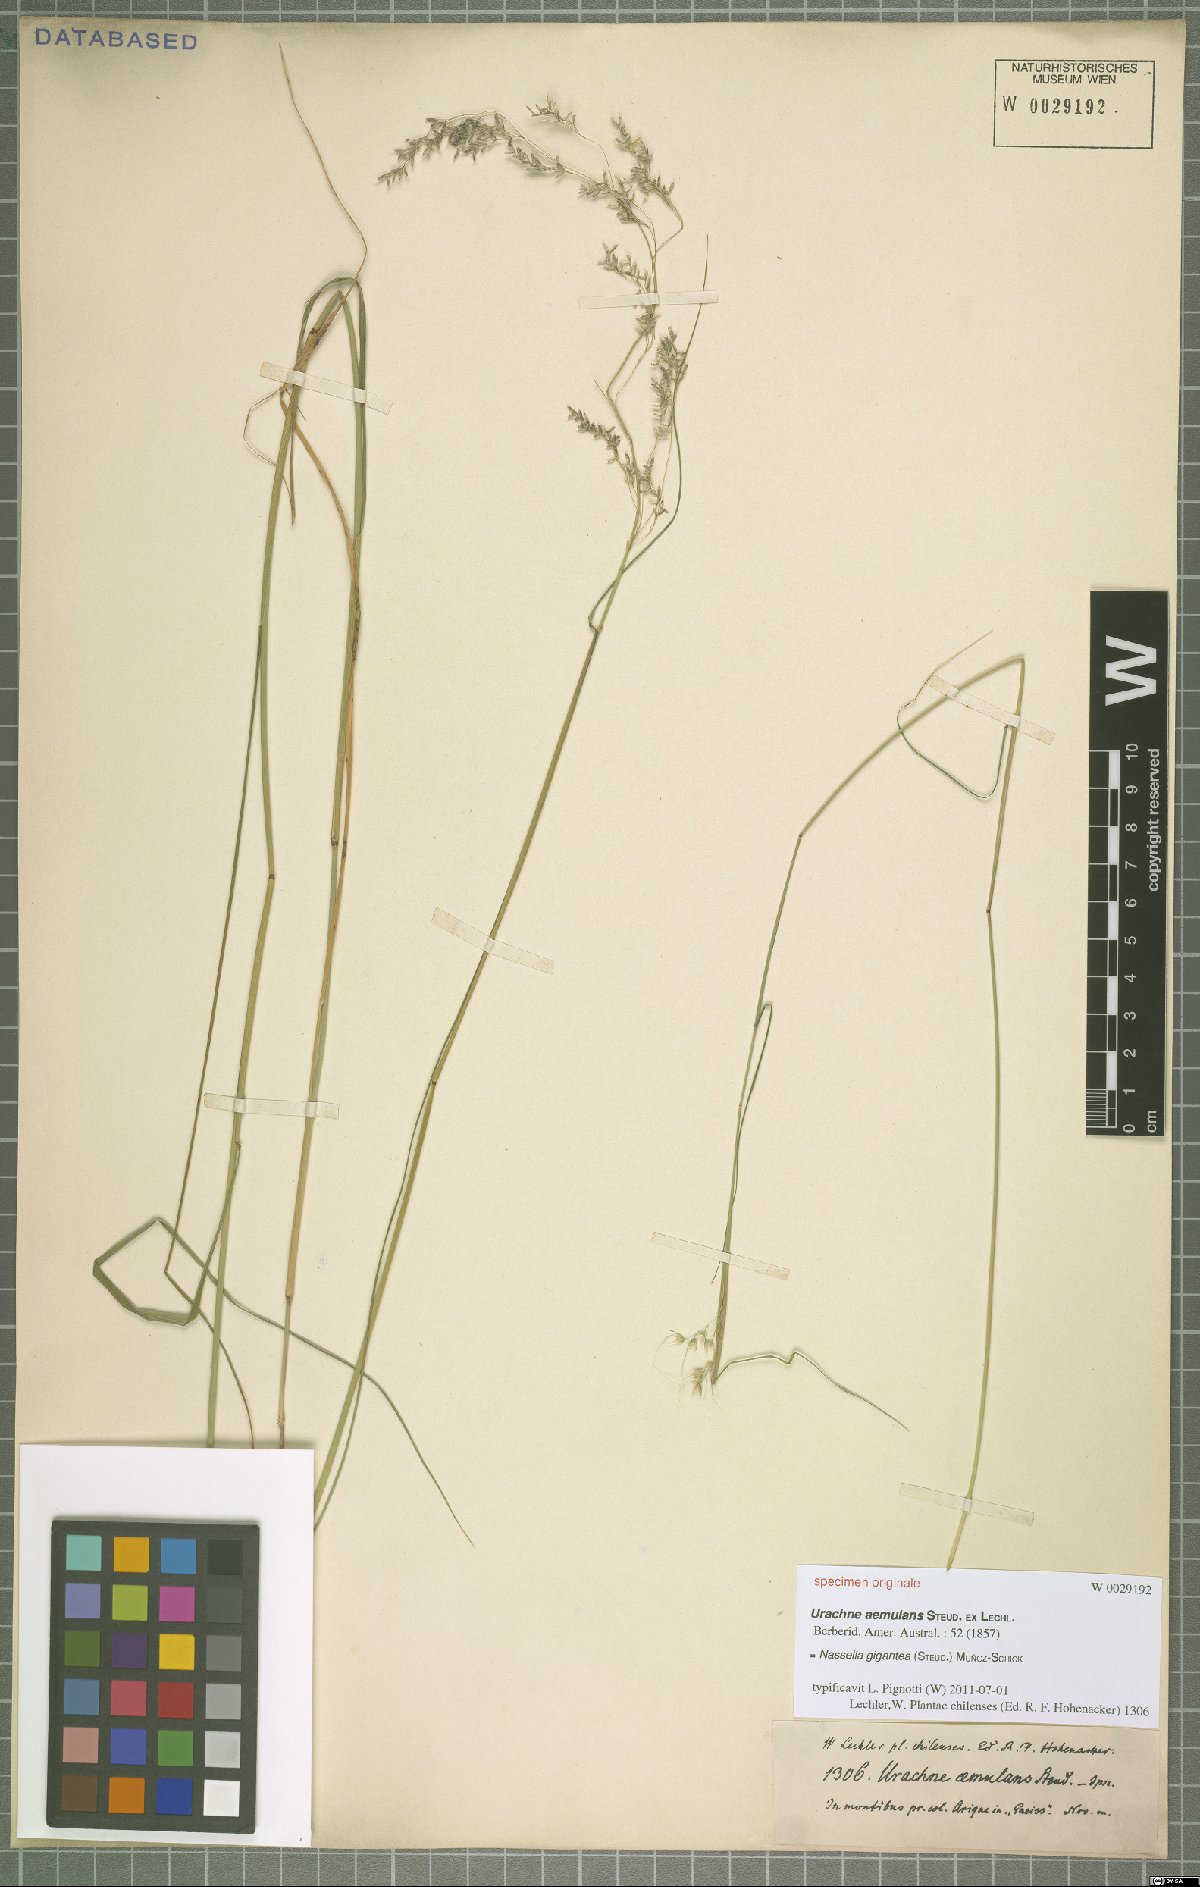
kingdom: Plantae
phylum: Tracheophyta
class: Liliopsida
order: Poales
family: Poaceae
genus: Nassella
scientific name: Nassella gigantea
